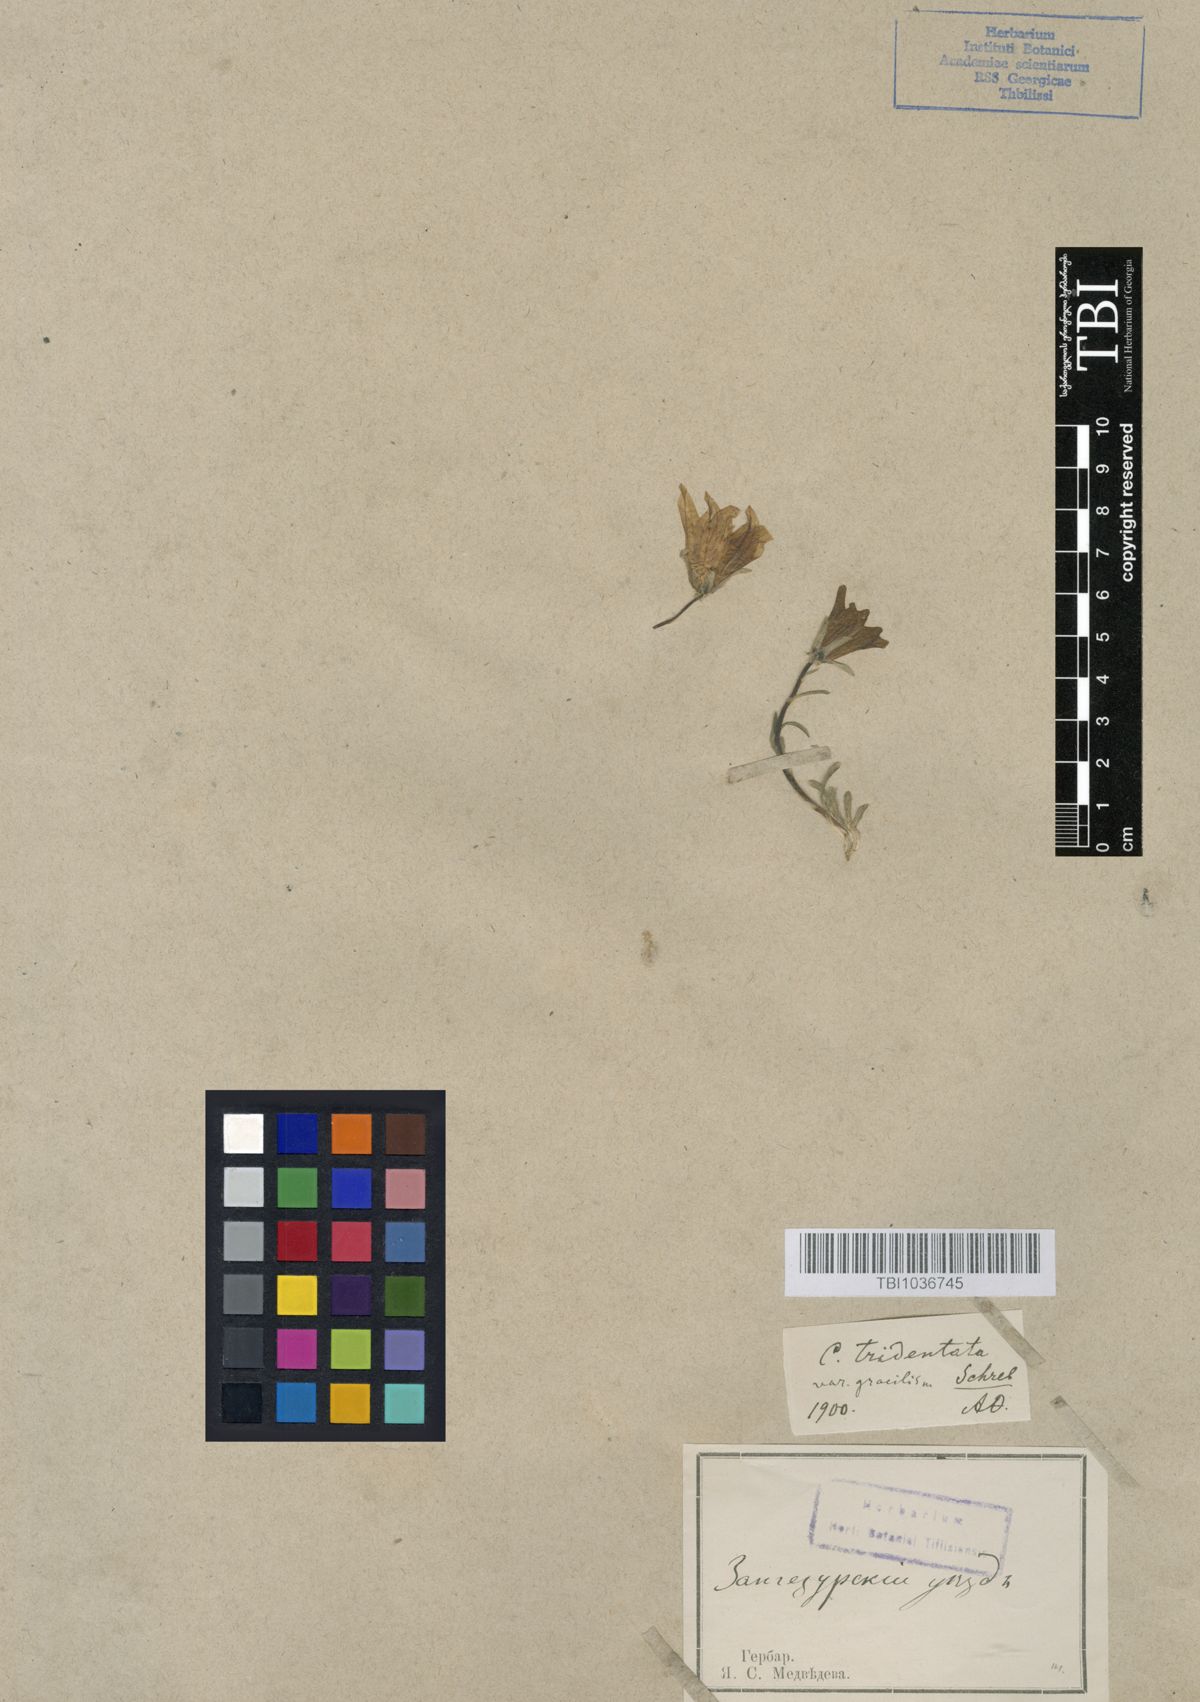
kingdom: Plantae
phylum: Tracheophyta
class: Magnoliopsida
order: Asterales
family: Campanulaceae
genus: Campanula
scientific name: Campanula tridentata
